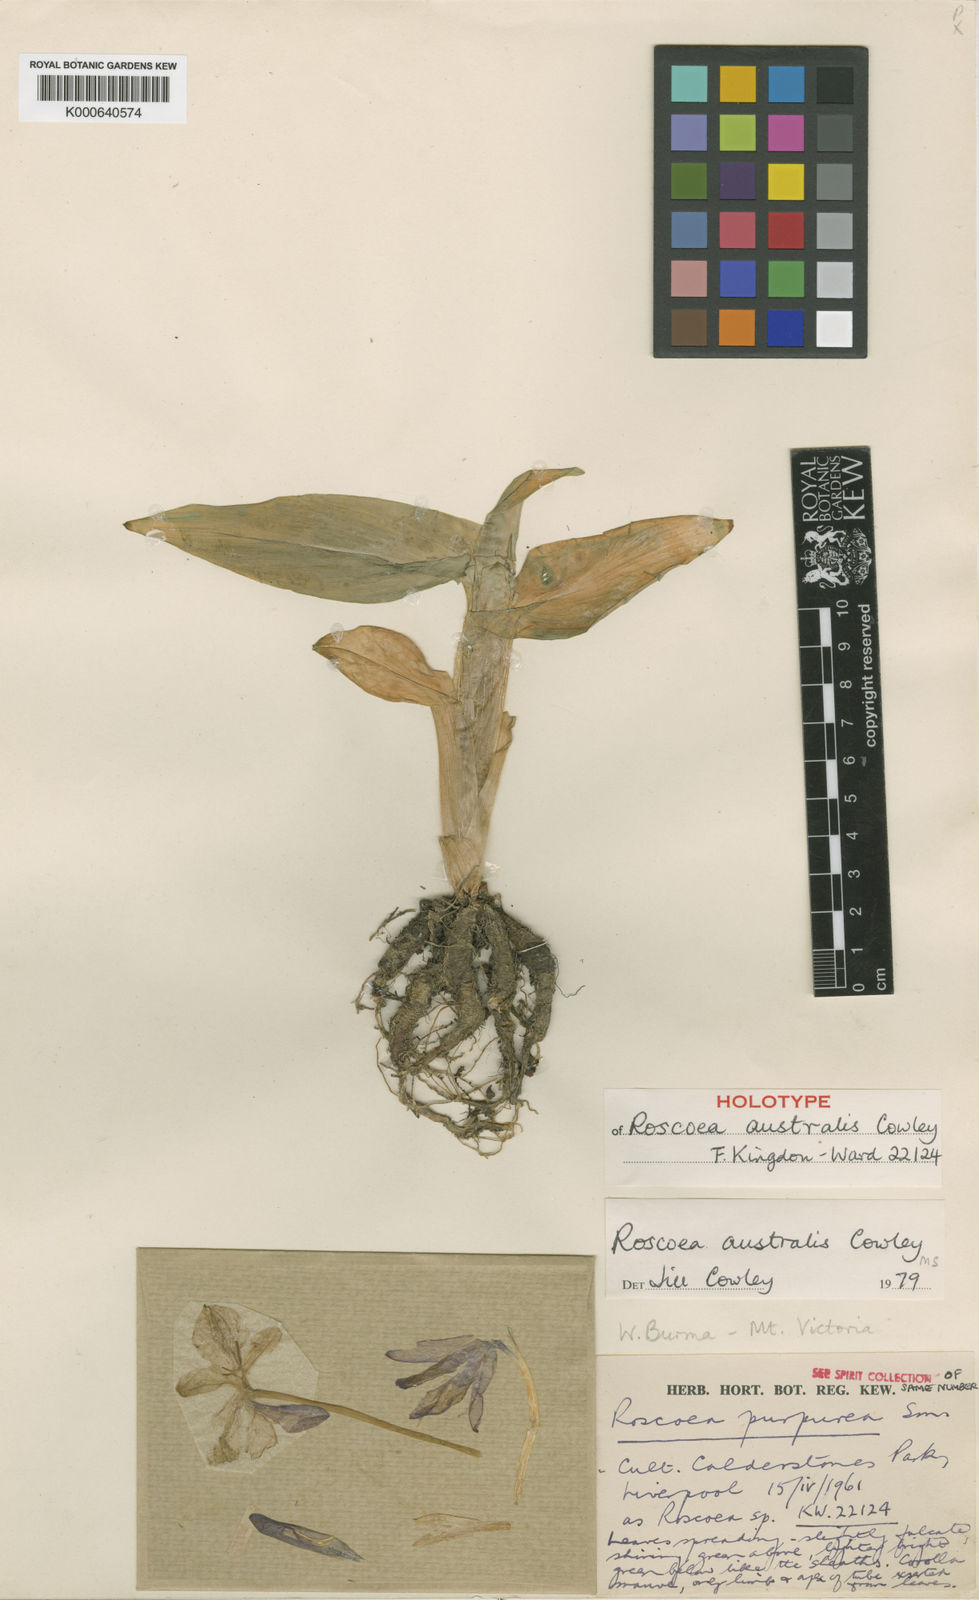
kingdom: Plantae
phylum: Tracheophyta
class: Liliopsida
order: Zingiberales
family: Zingiberaceae
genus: Roscoea
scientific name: Roscoea australis
